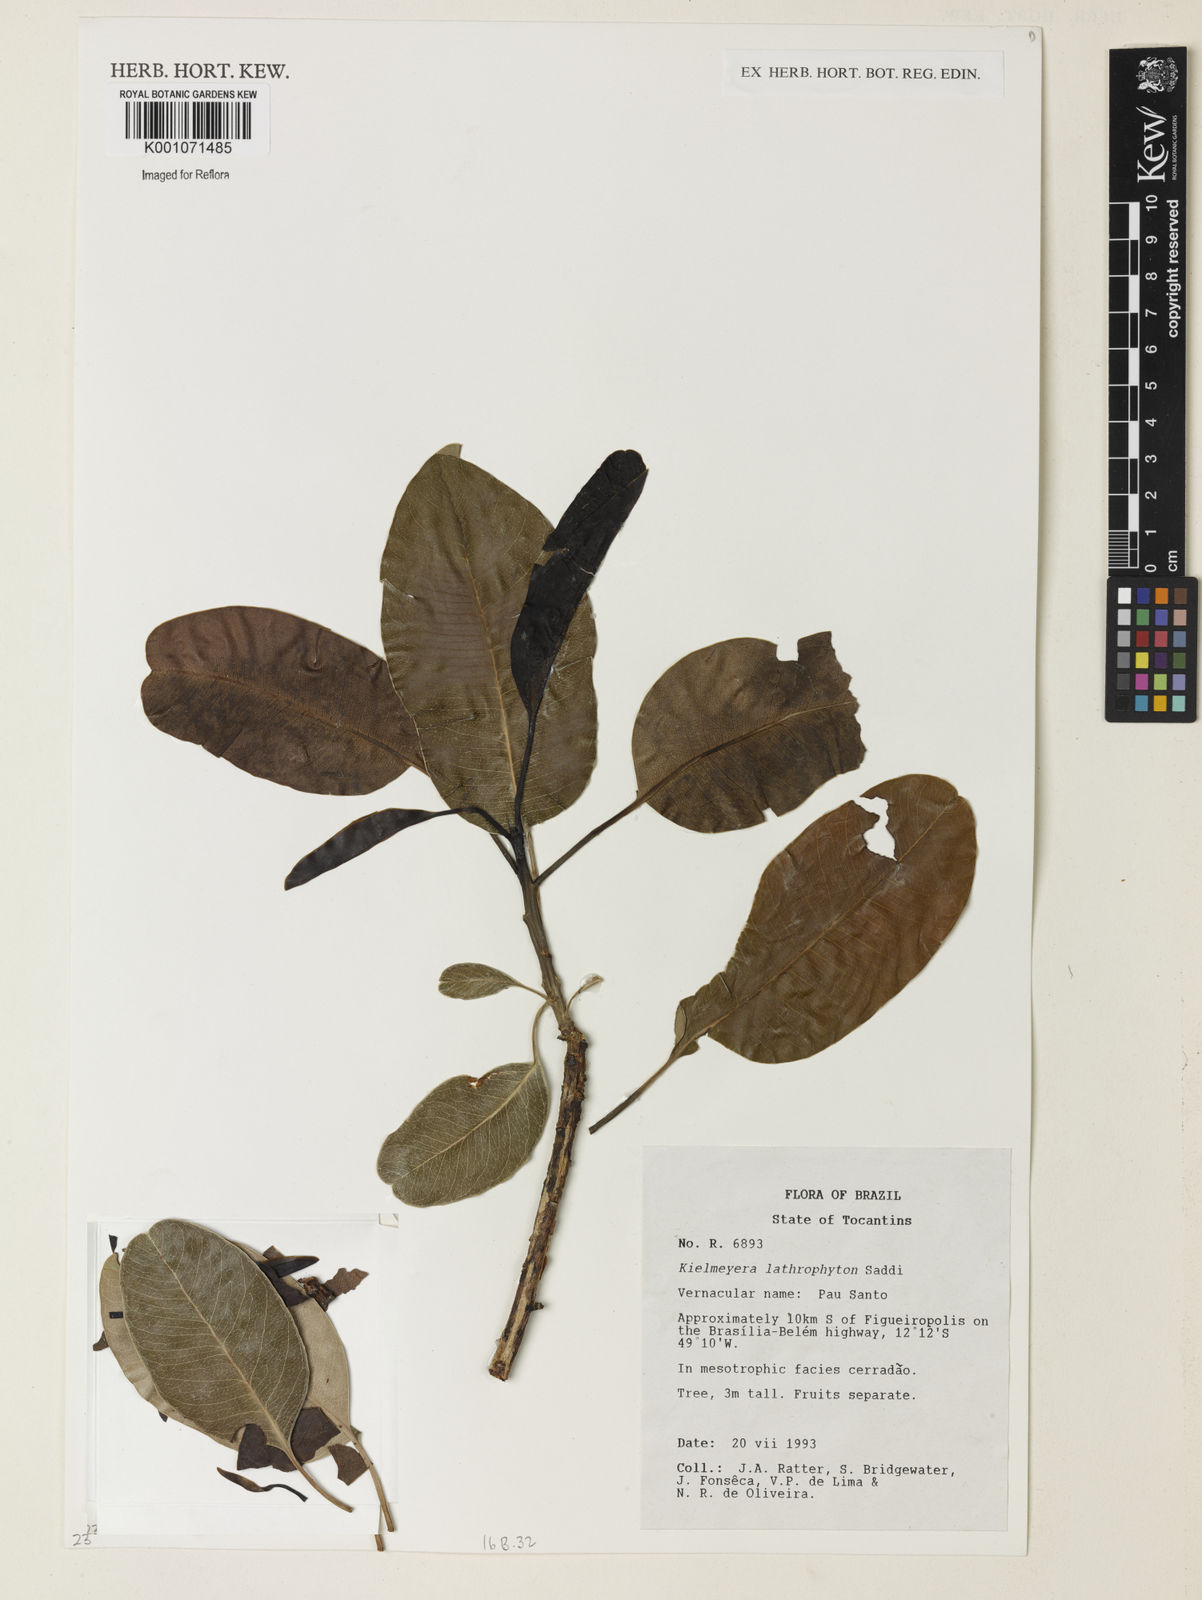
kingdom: Plantae
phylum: Tracheophyta
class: Magnoliopsida
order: Malpighiales
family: Calophyllaceae
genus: Kielmeyera
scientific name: Kielmeyera lathrophyton
